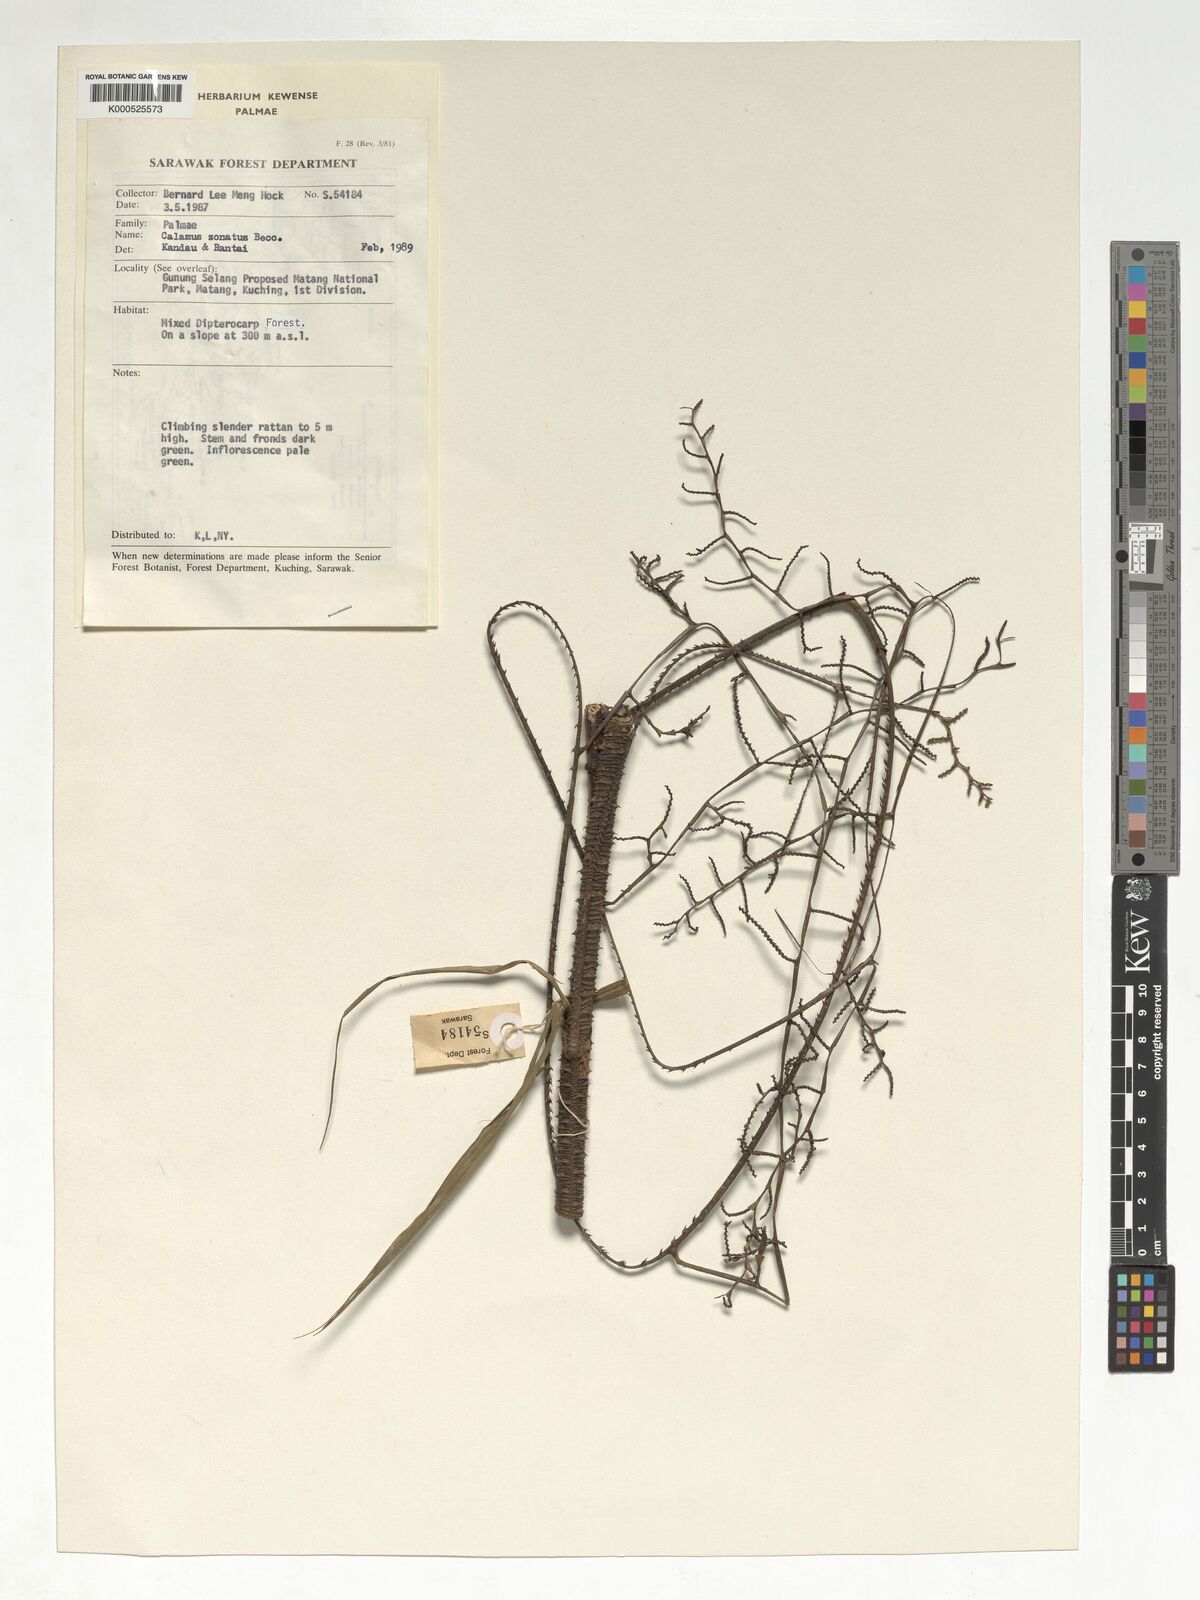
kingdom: Plantae
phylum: Tracheophyta
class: Liliopsida
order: Arecales
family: Arecaceae
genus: Calamus
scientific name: Calamus zonatus
